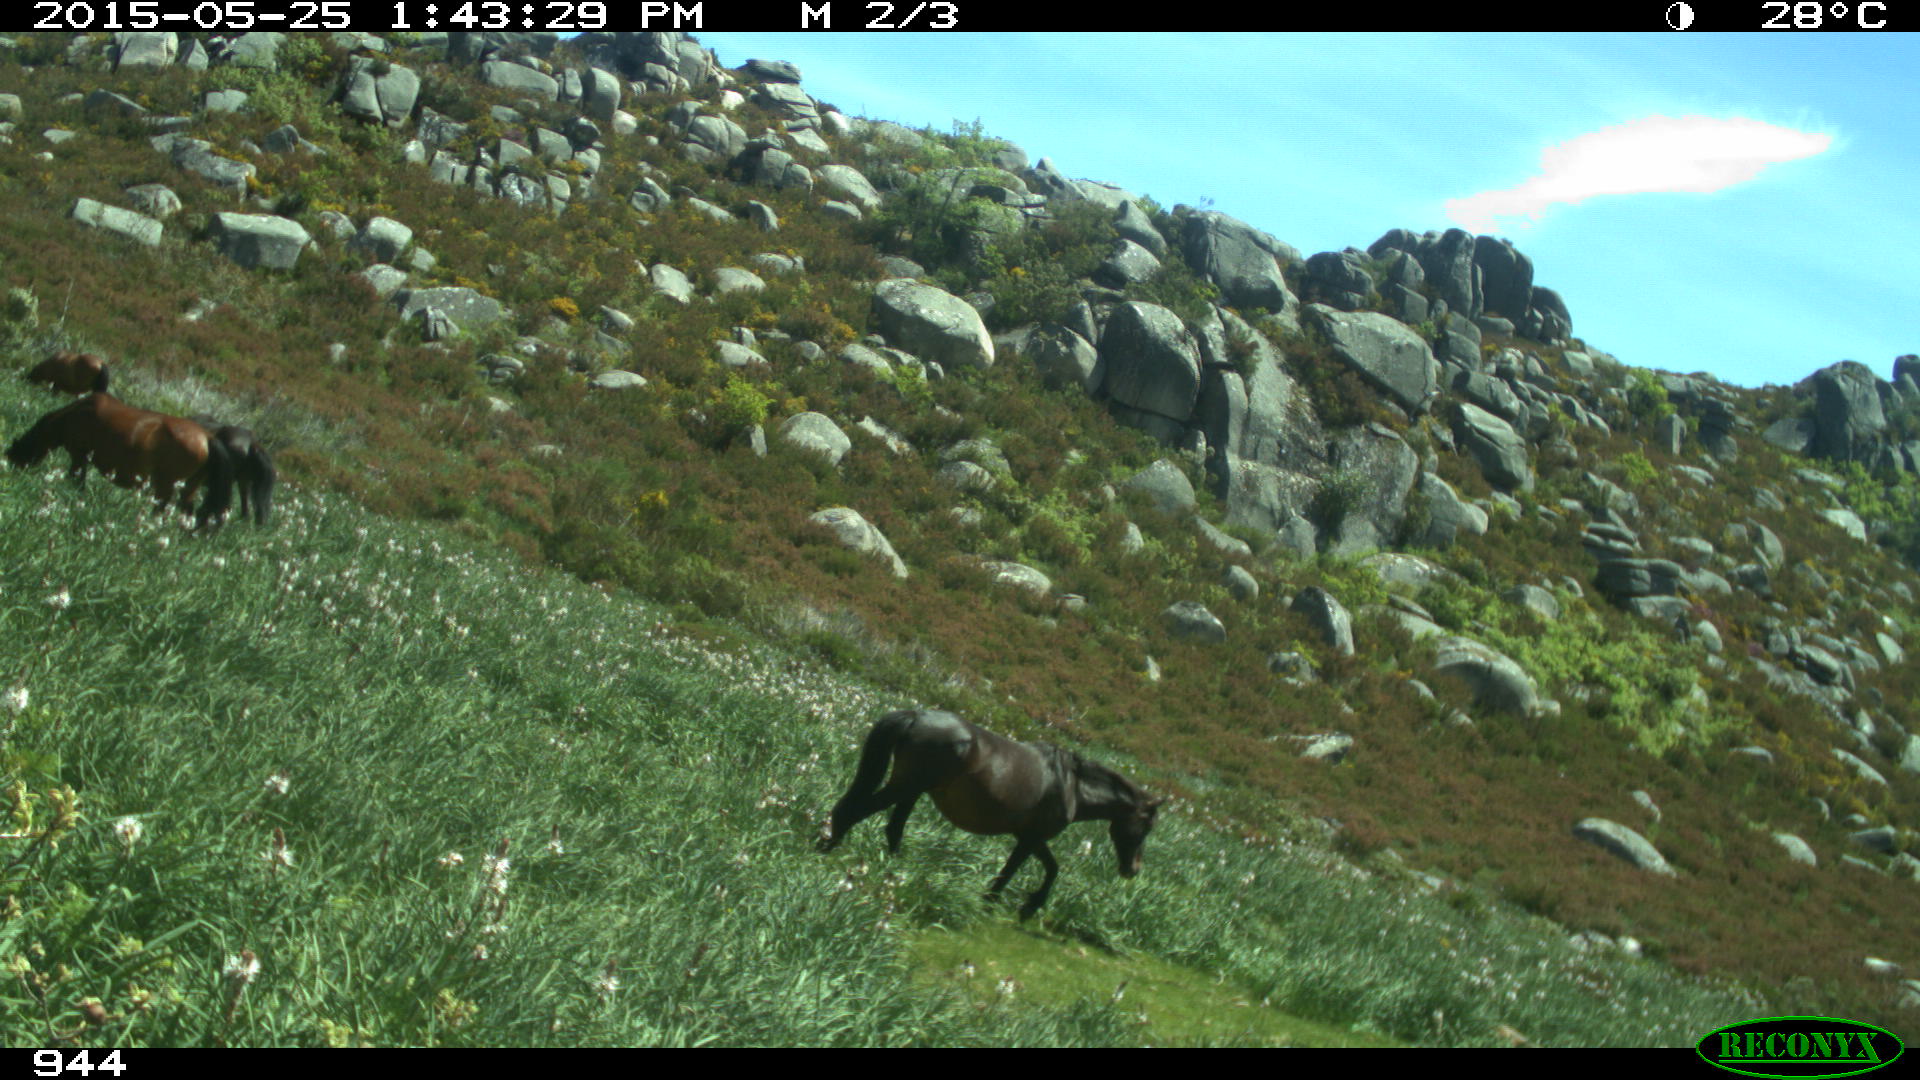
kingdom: Animalia
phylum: Chordata
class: Mammalia
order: Perissodactyla
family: Equidae
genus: Equus
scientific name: Equus caballus
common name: Horse
